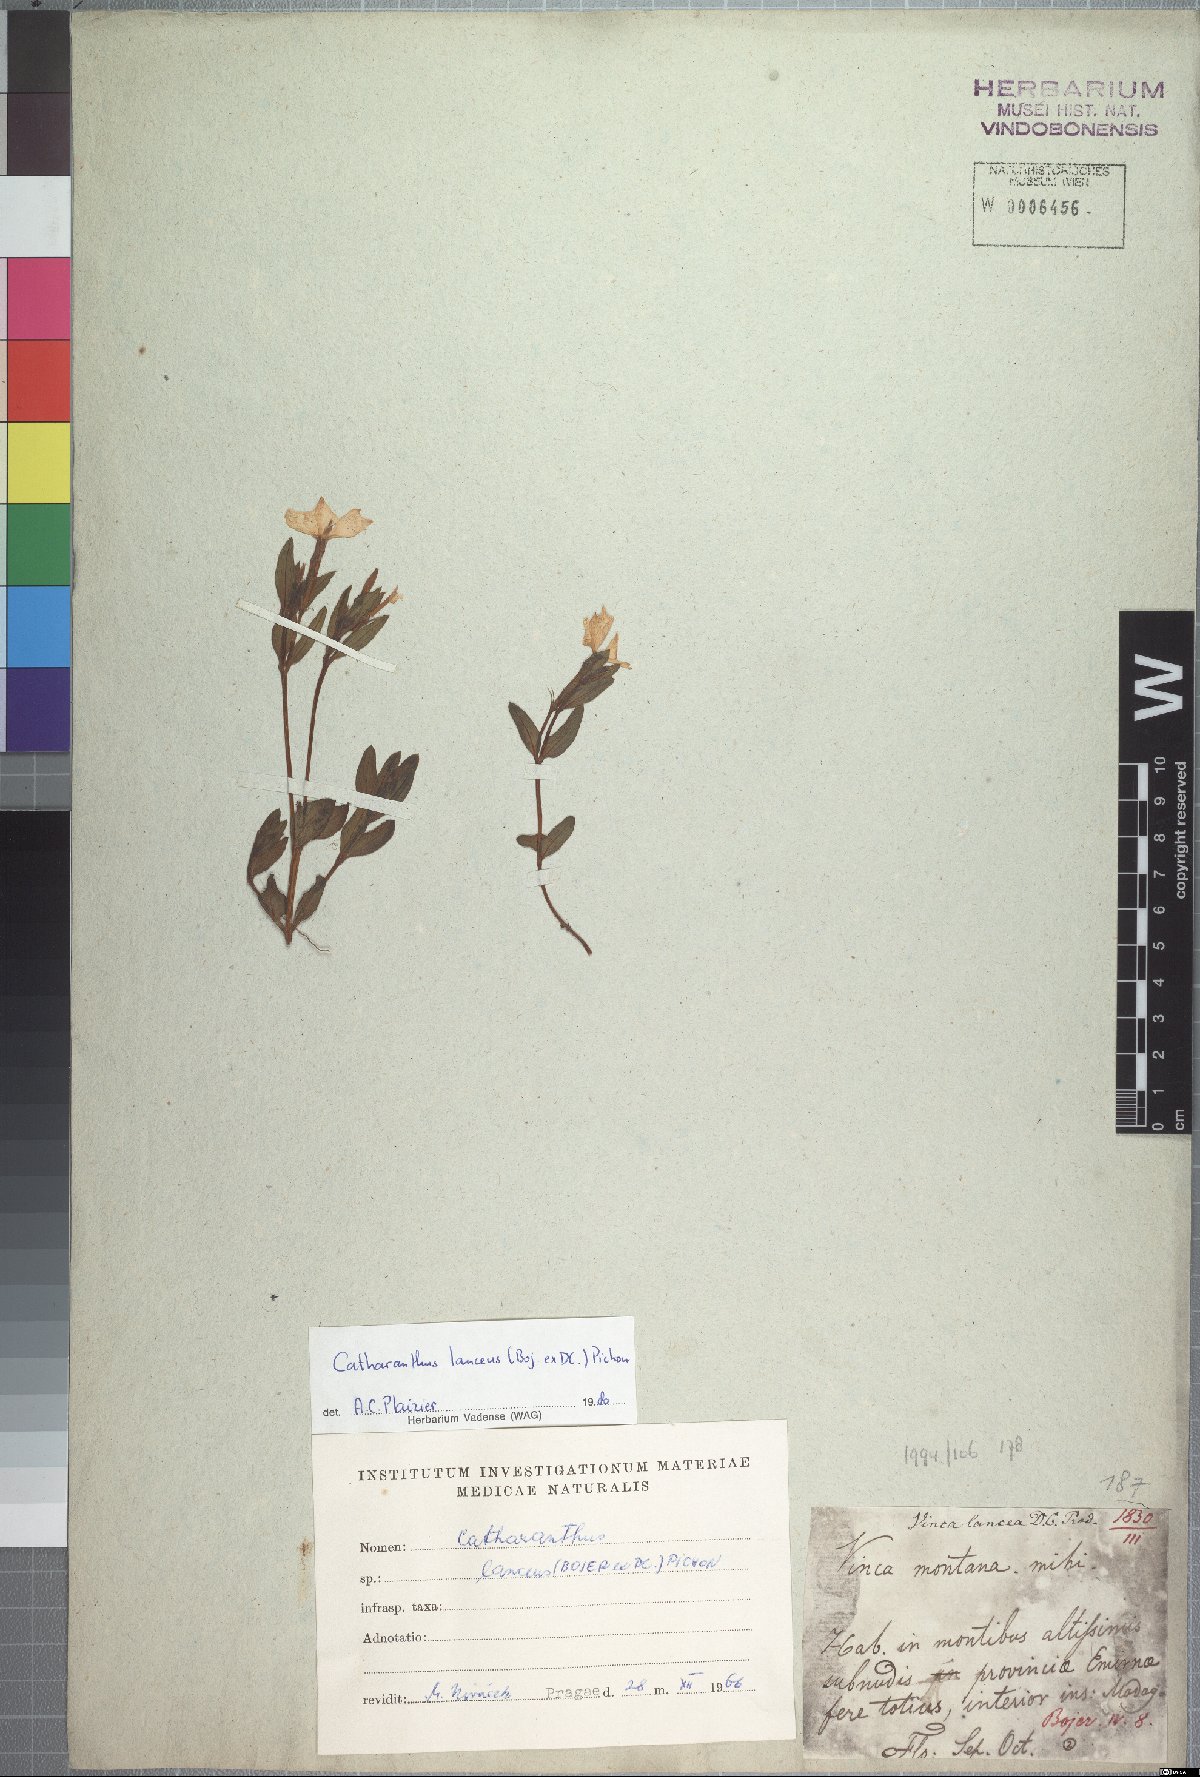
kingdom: Plantae
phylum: Tracheophyta
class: Magnoliopsida
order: Gentianales
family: Apocynaceae
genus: Catharanthus
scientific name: Catharanthus lanceus
